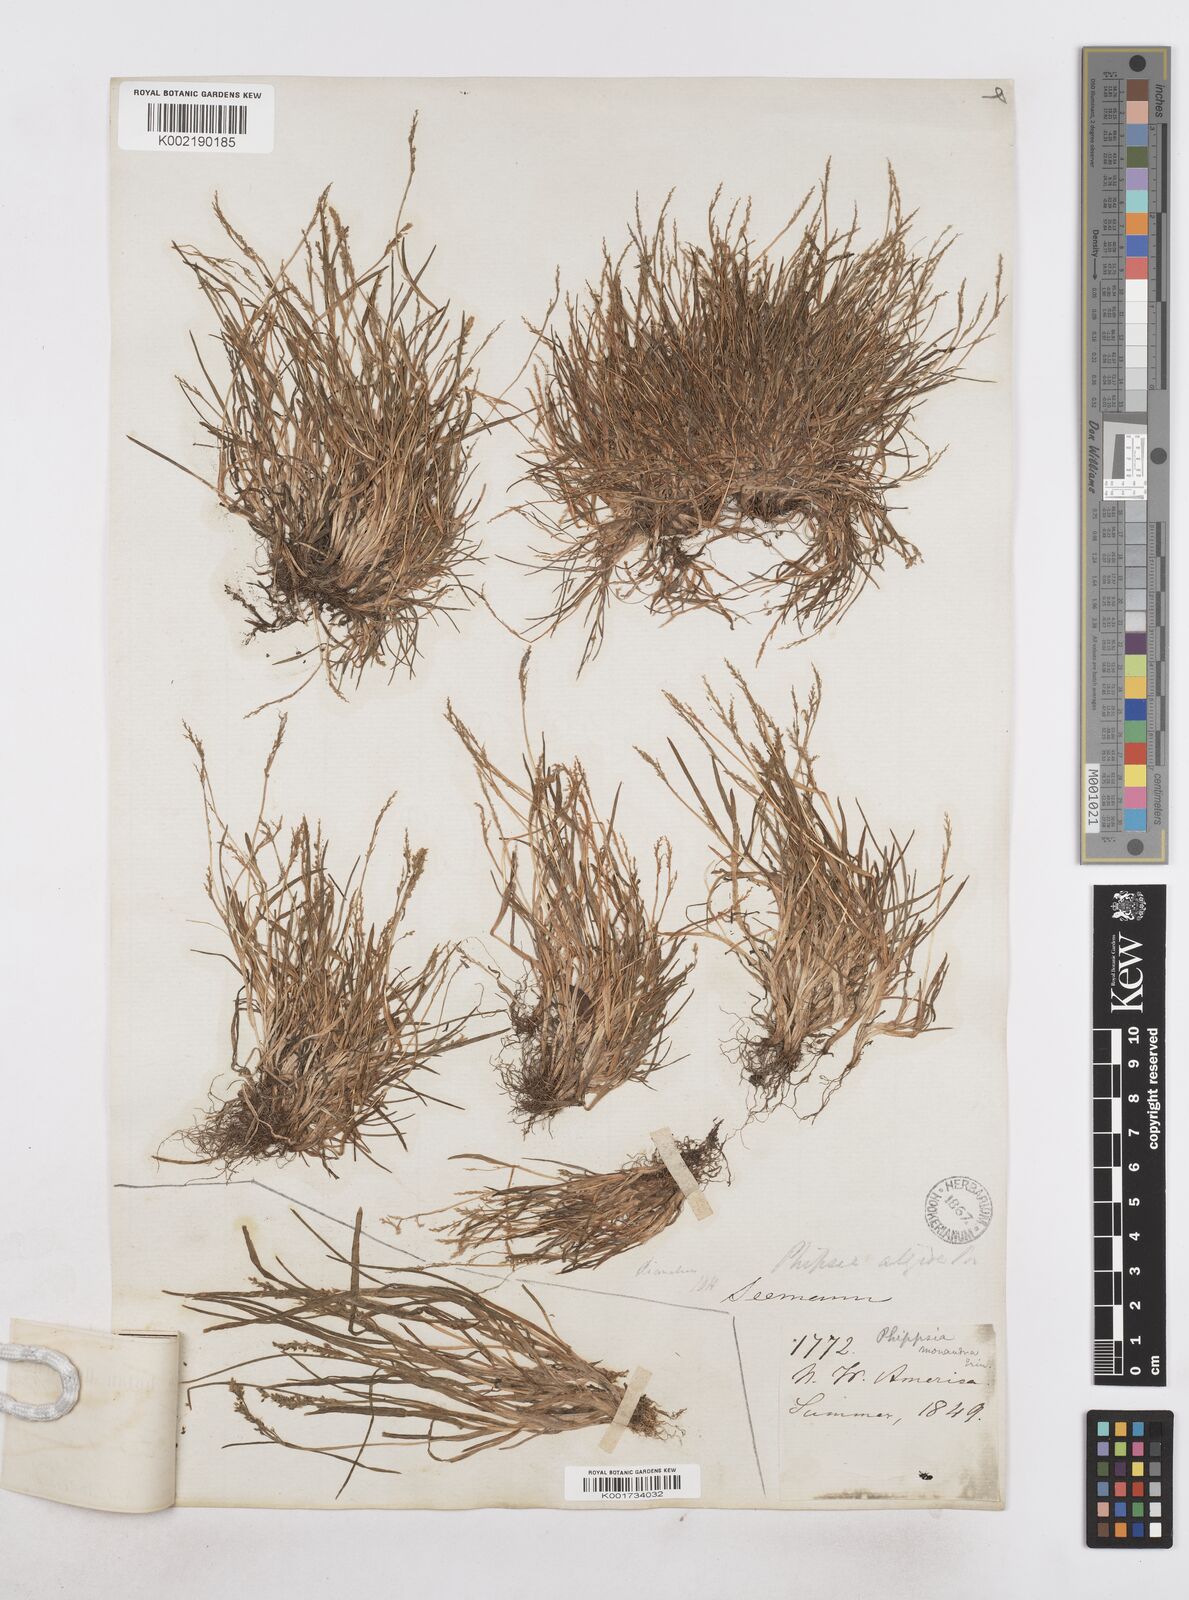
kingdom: Plantae
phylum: Tracheophyta
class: Liliopsida
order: Poales
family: Poaceae
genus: Phippsia
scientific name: Phippsia algida
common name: Ice grass
